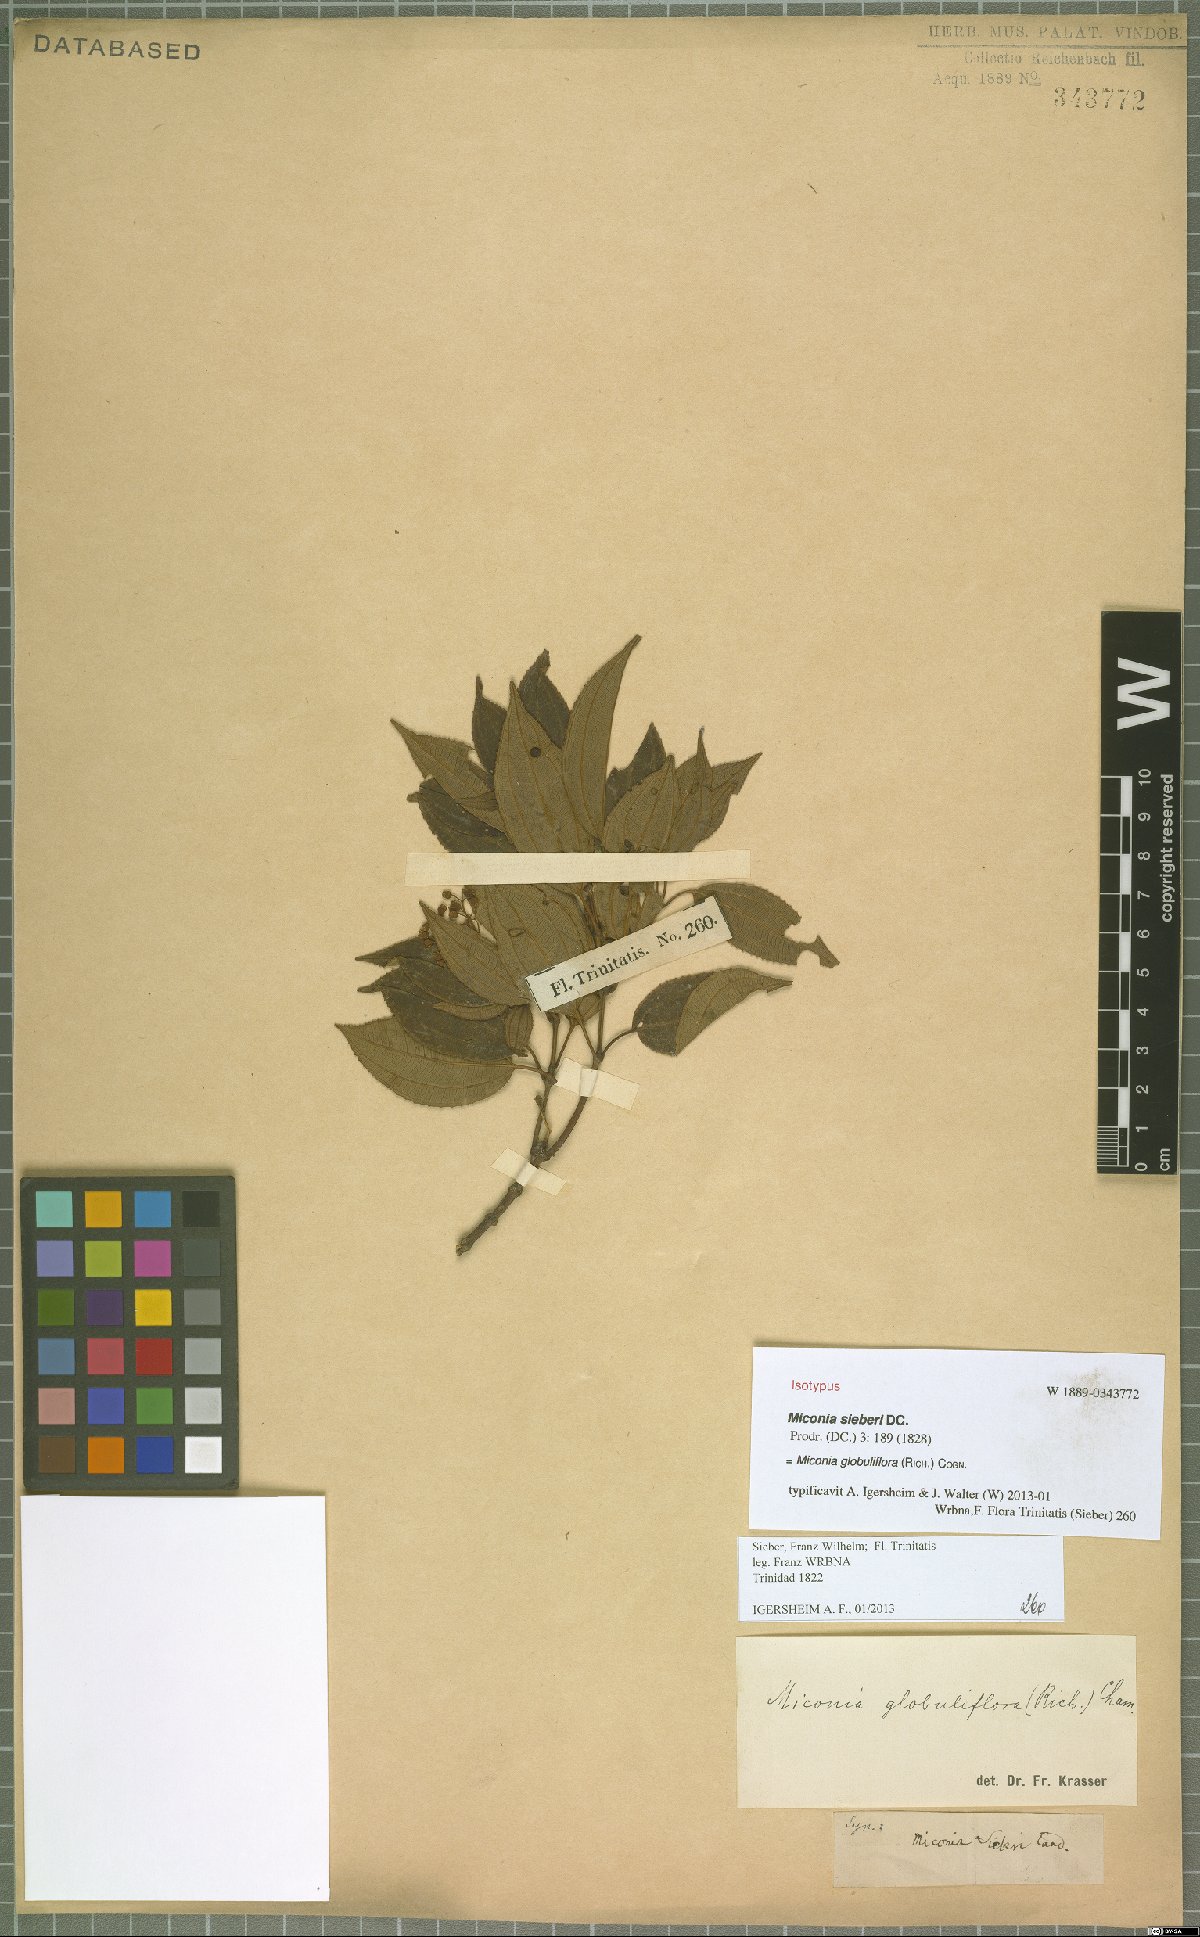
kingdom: Plantae
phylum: Tracheophyta
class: Magnoliopsida
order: Myrtales
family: Melastomataceae
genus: Miconia
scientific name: Miconia globuliflora
